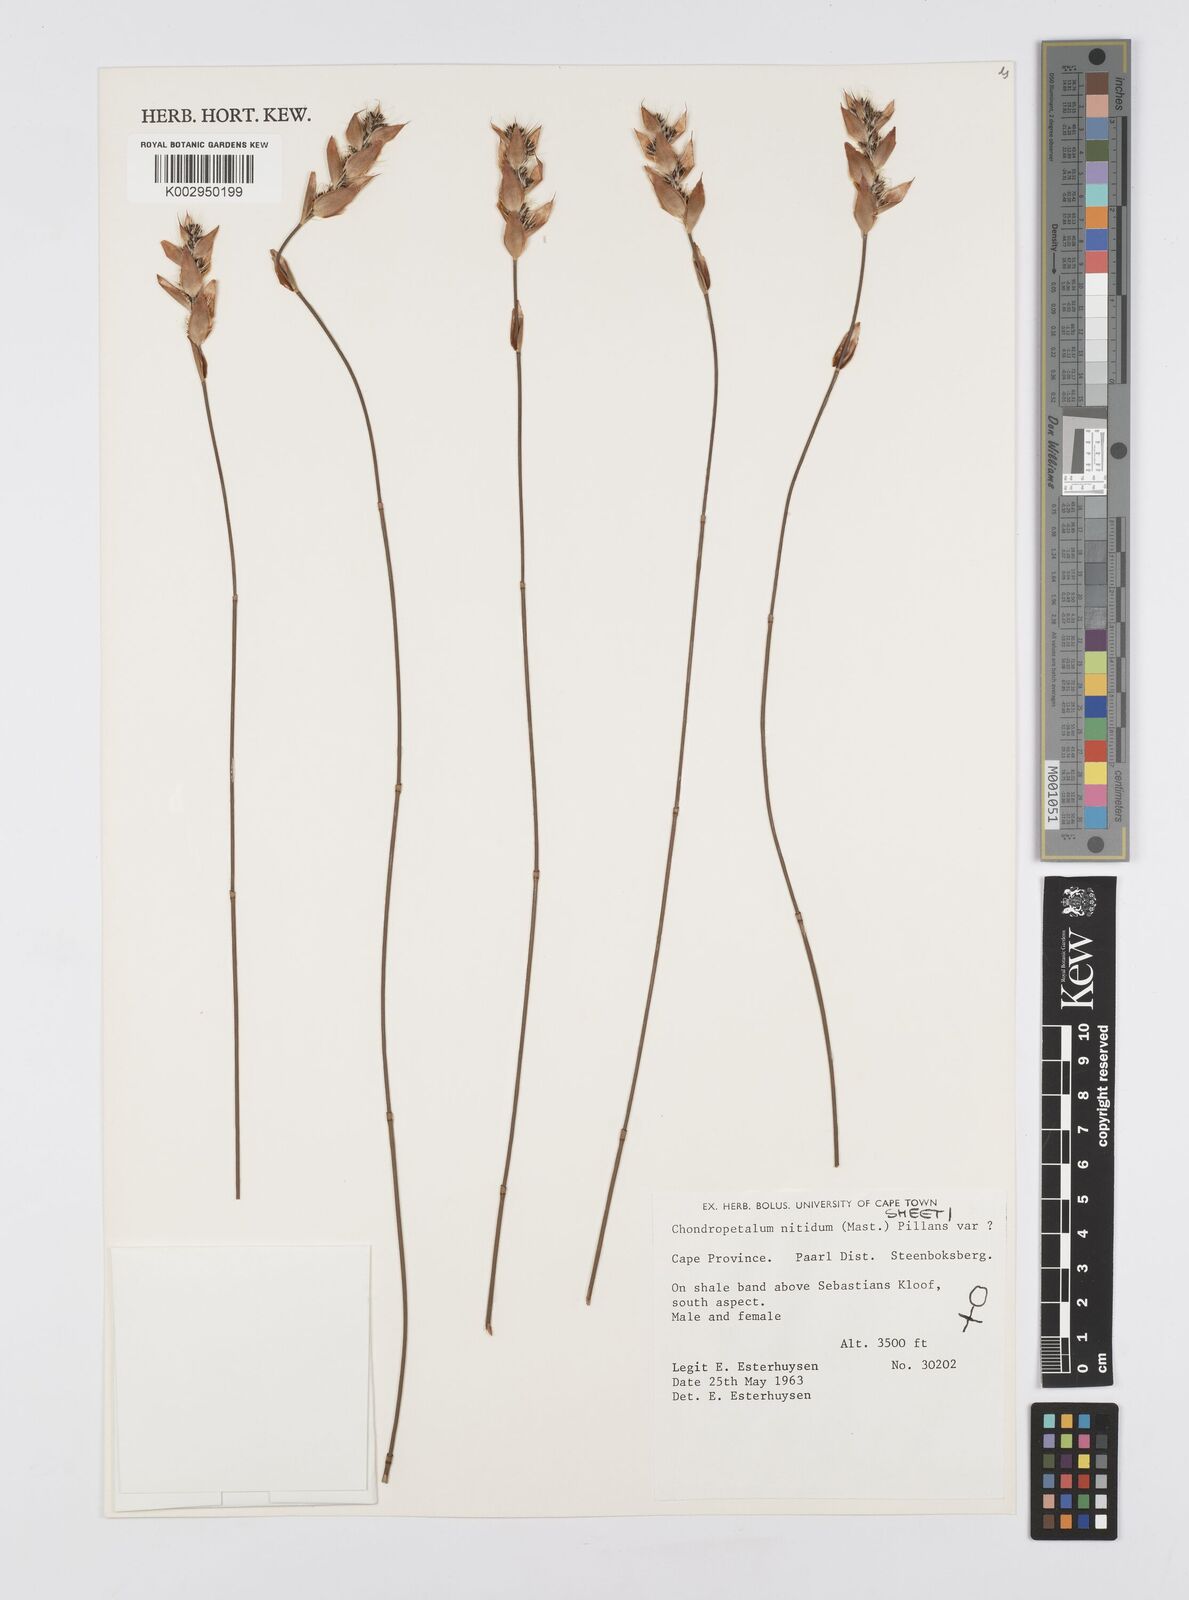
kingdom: Plantae
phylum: Tracheophyta
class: Liliopsida
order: Poales
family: Restionaceae
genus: Askidiosperma
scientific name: Askidiosperma nitidum
